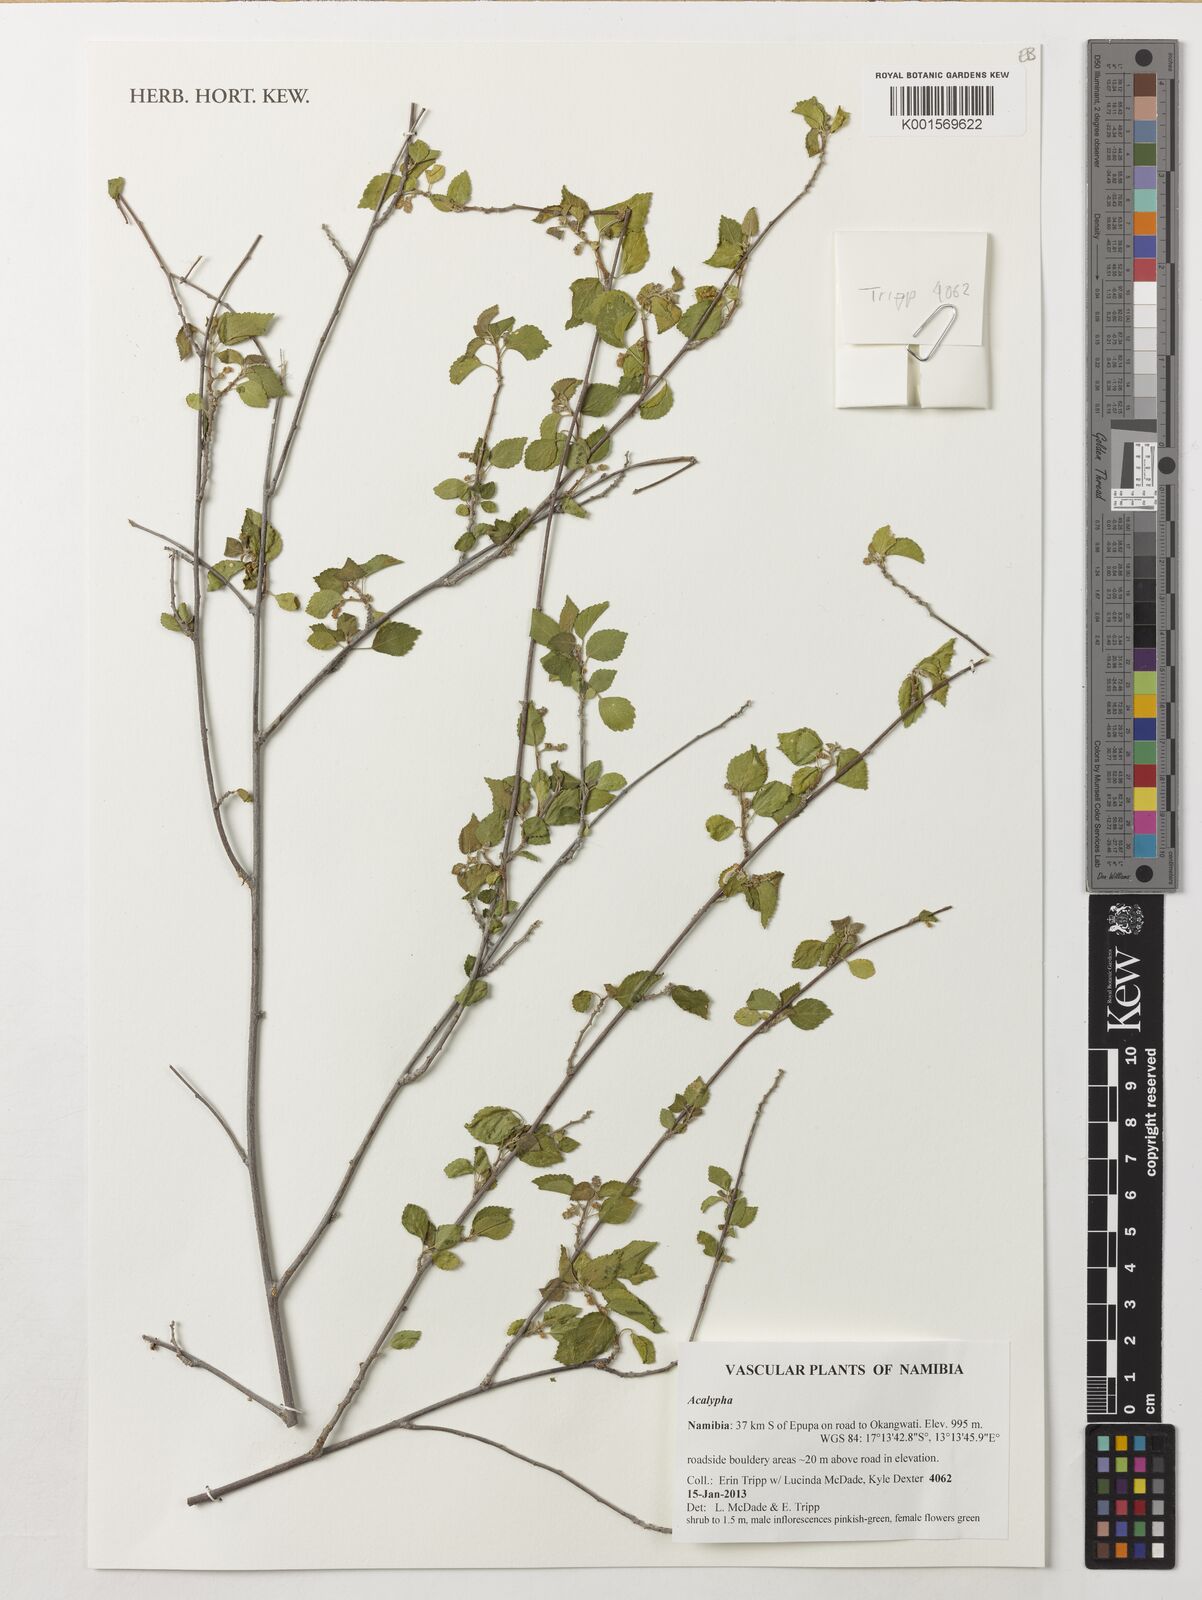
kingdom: Plantae
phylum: Tracheophyta
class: Magnoliopsida
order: Malpighiales
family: Euphorbiaceae
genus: Acalypha
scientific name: Acalypha
